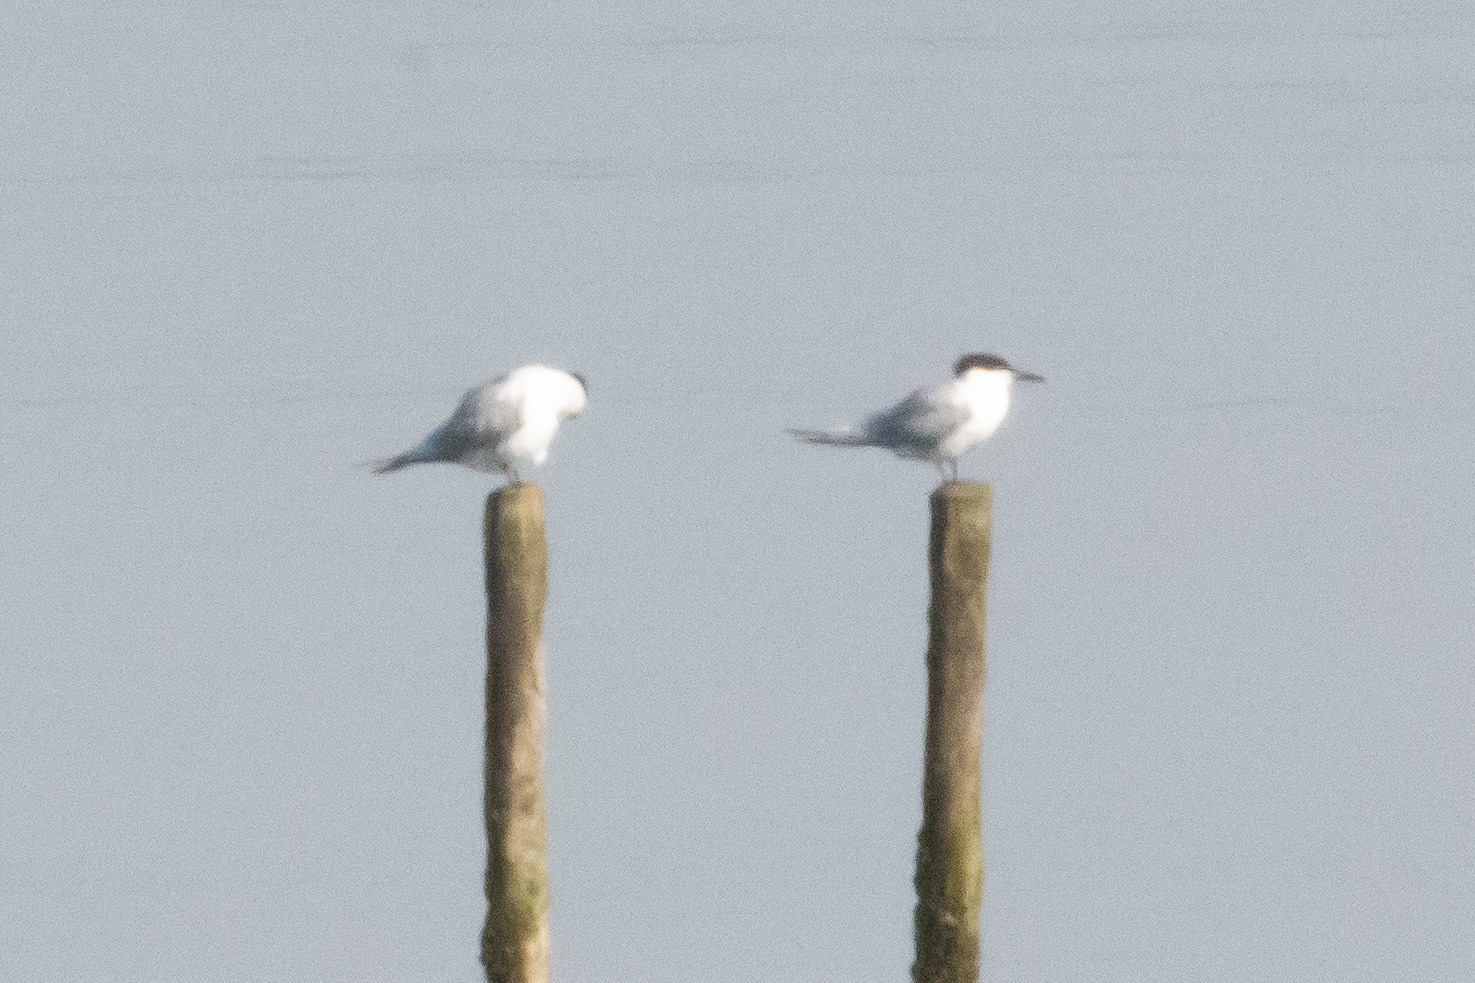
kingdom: Animalia
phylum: Chordata
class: Aves
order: Charadriiformes
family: Laridae
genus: Thalasseus
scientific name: Thalasseus sandvicensis
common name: Splitterne
